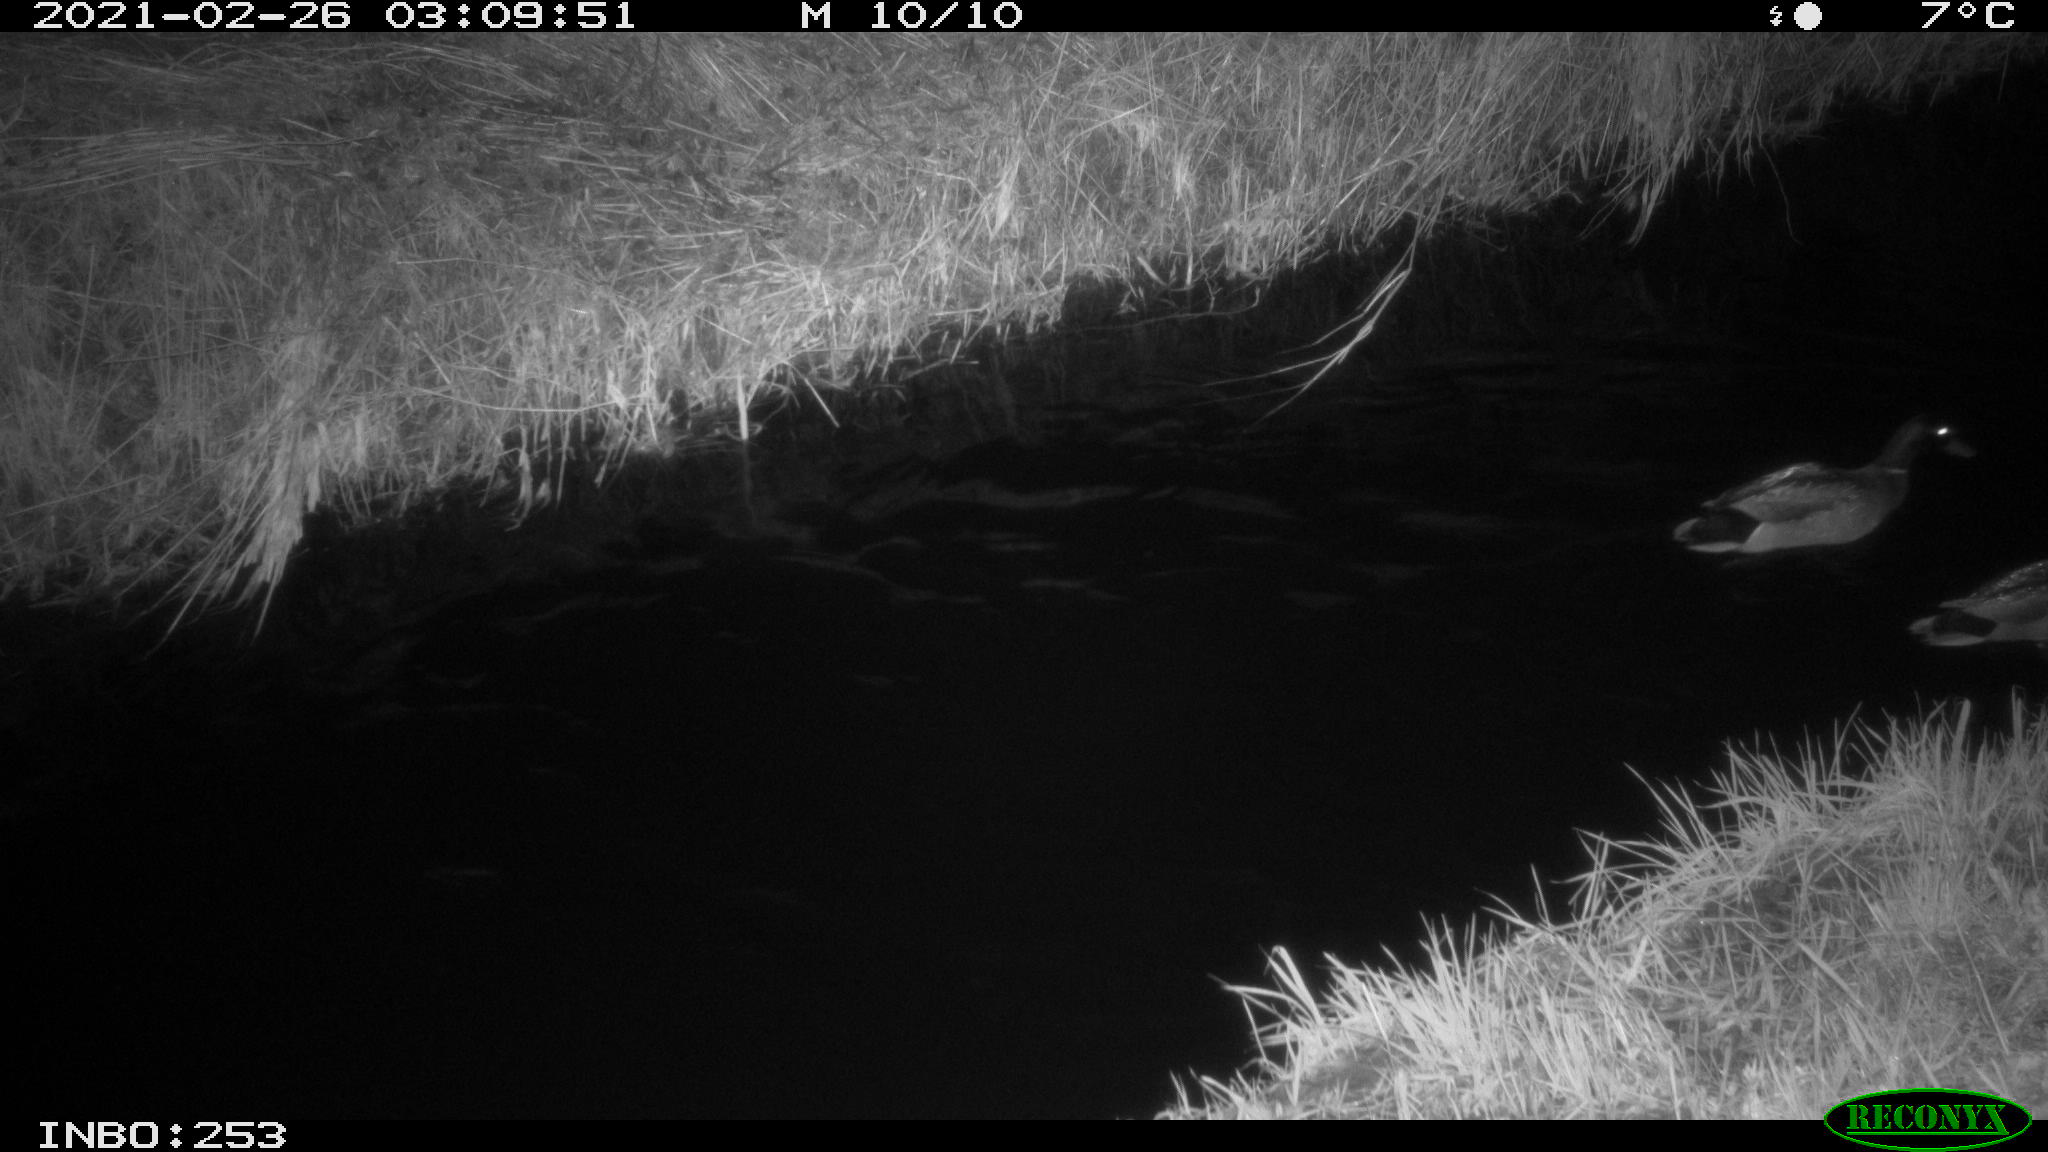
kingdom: Animalia
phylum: Chordata
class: Aves
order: Anseriformes
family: Anatidae
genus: Anas
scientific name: Anas platyrhynchos
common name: Mallard
